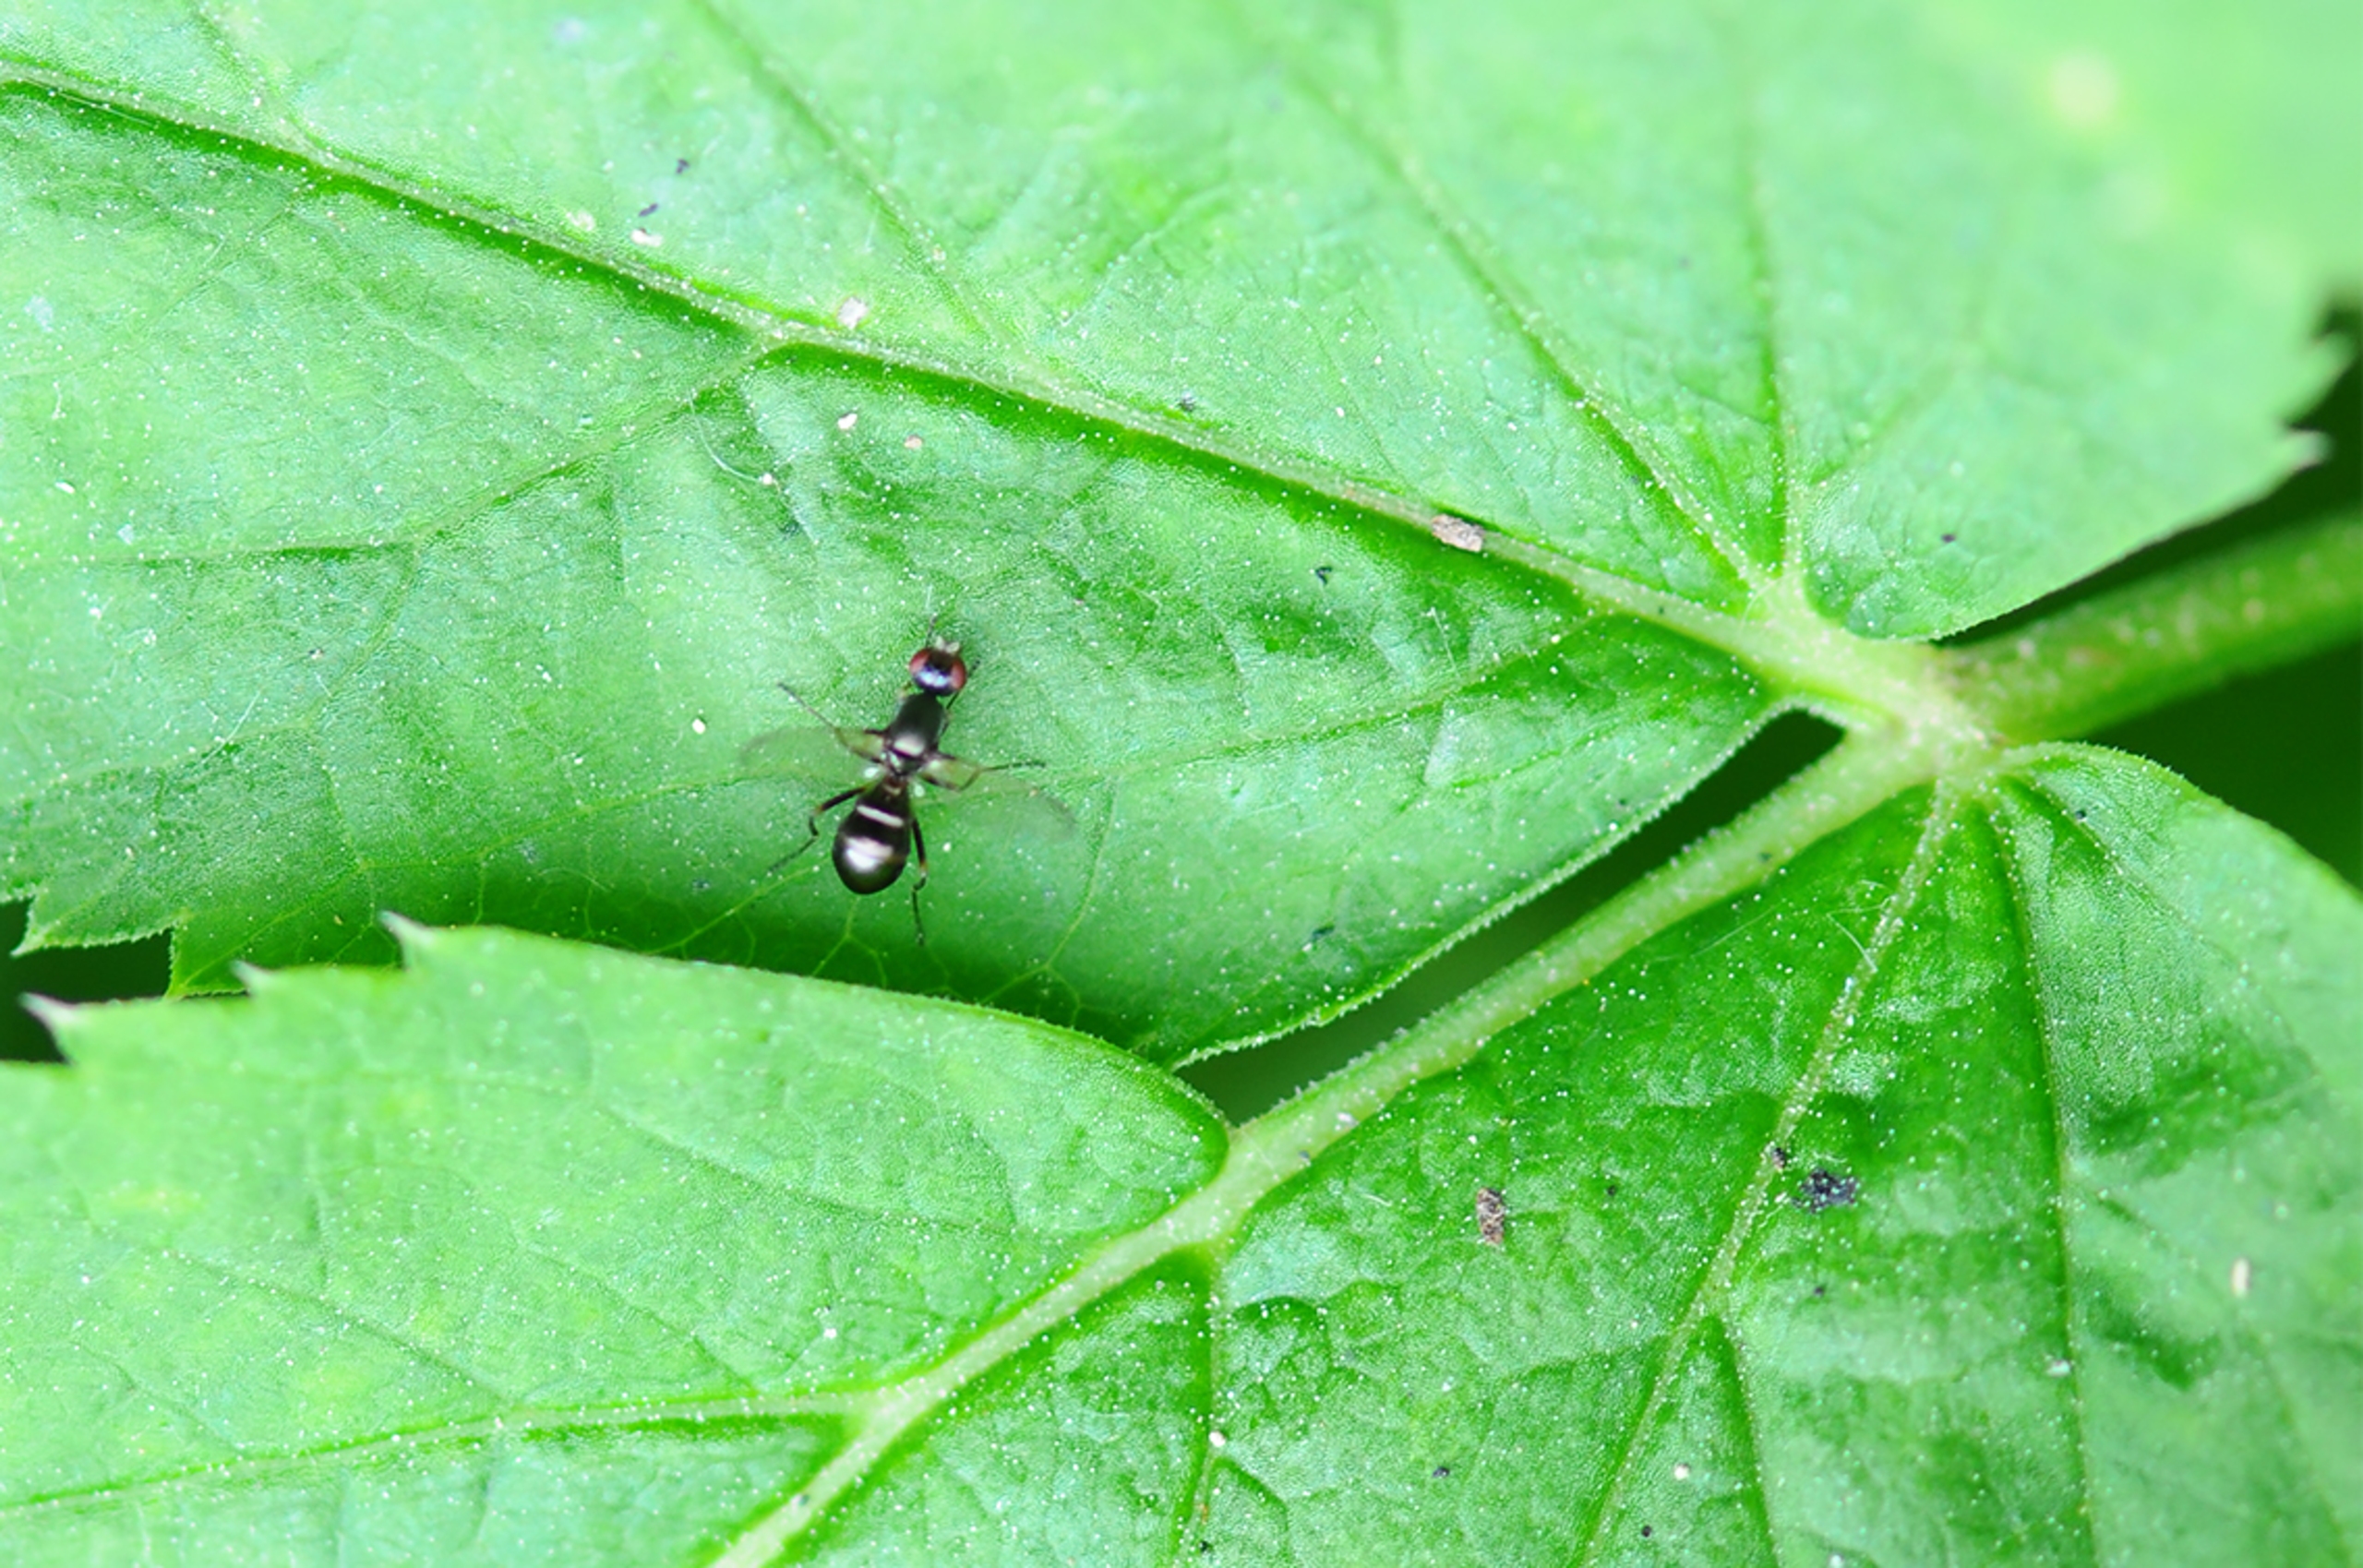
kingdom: Animalia
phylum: Arthropoda
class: Insecta
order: Diptera
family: Sepsidae
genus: Nemopoda
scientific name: Nemopoda nitidula
